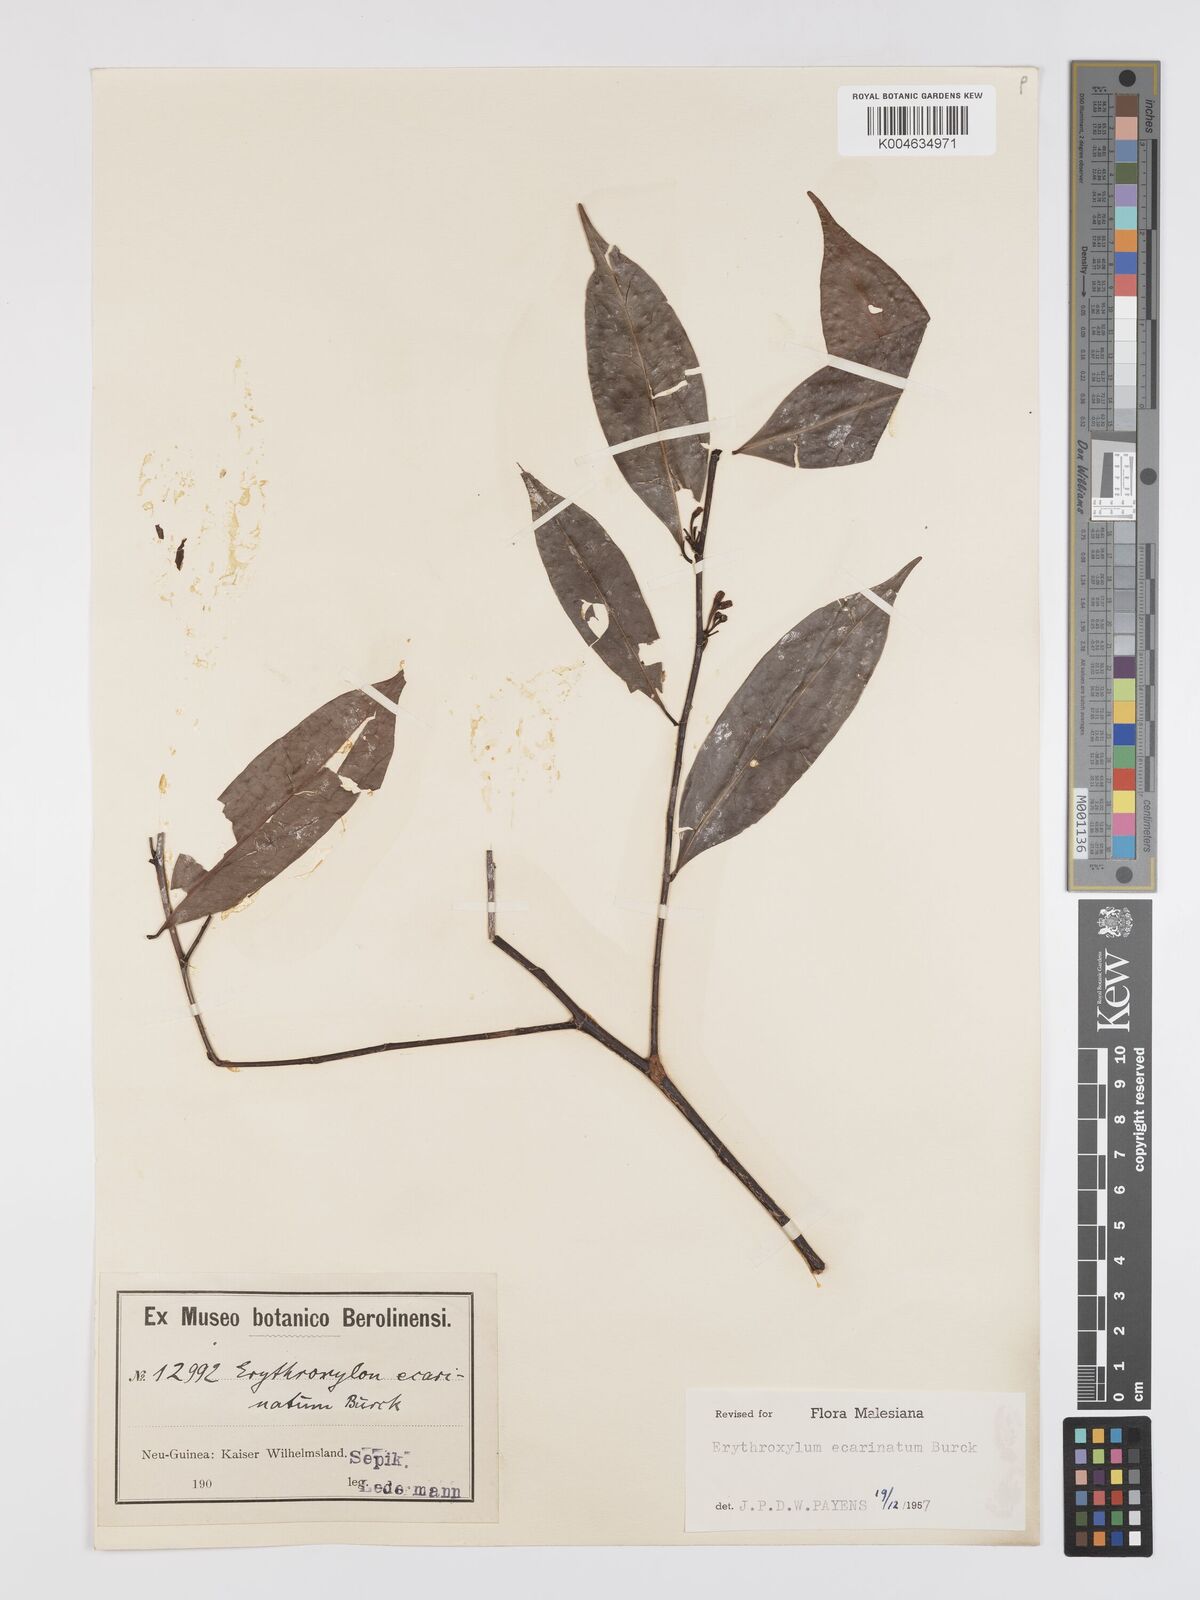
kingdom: Plantae
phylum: Tracheophyta
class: Magnoliopsida
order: Malpighiales
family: Erythroxylaceae
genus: Erythroxylum
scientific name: Erythroxylum ecarinatum
